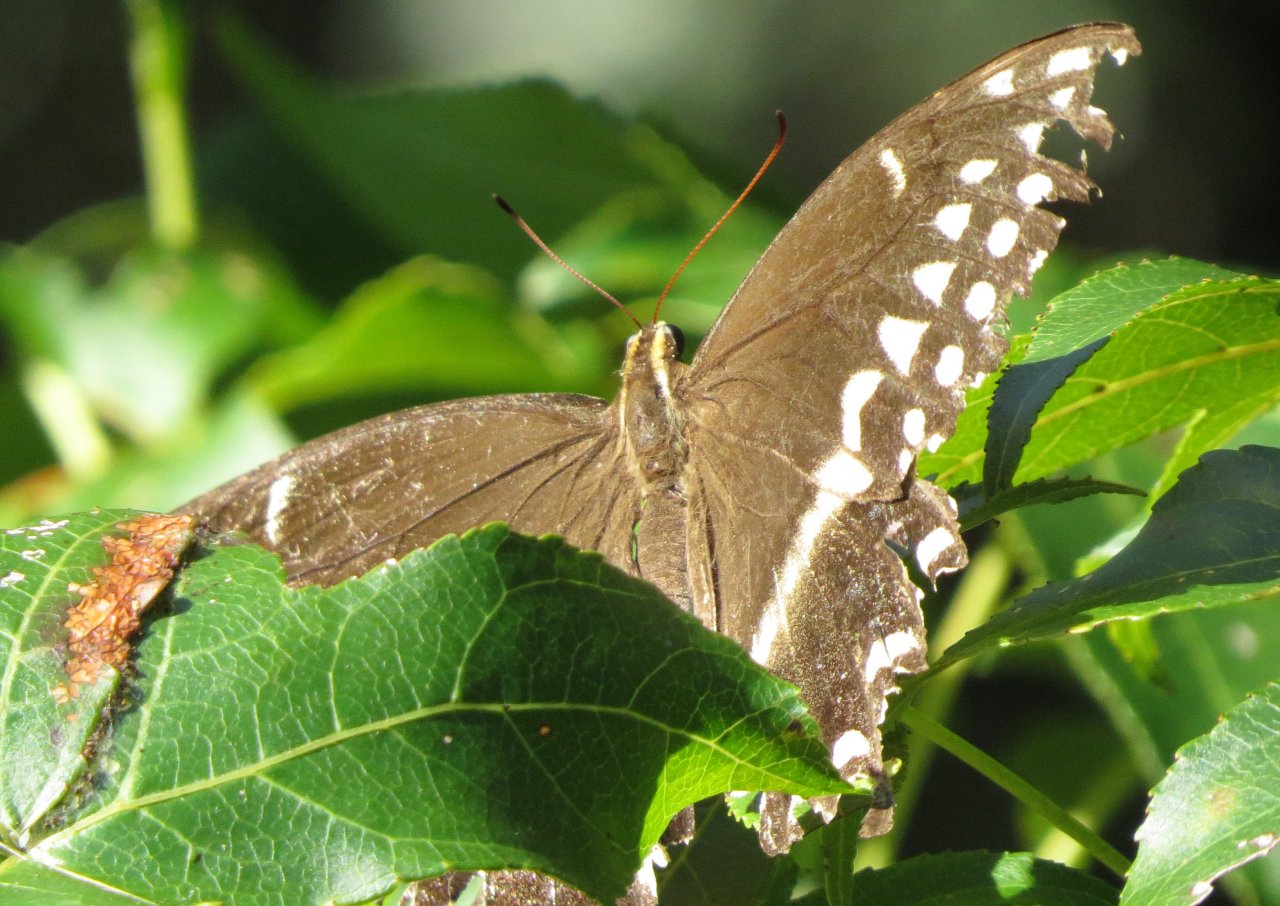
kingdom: Animalia
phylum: Arthropoda
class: Insecta
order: Lepidoptera
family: Papilionidae
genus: Pterourus
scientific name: Pterourus palamedes
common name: Palamedes Swallowtail
